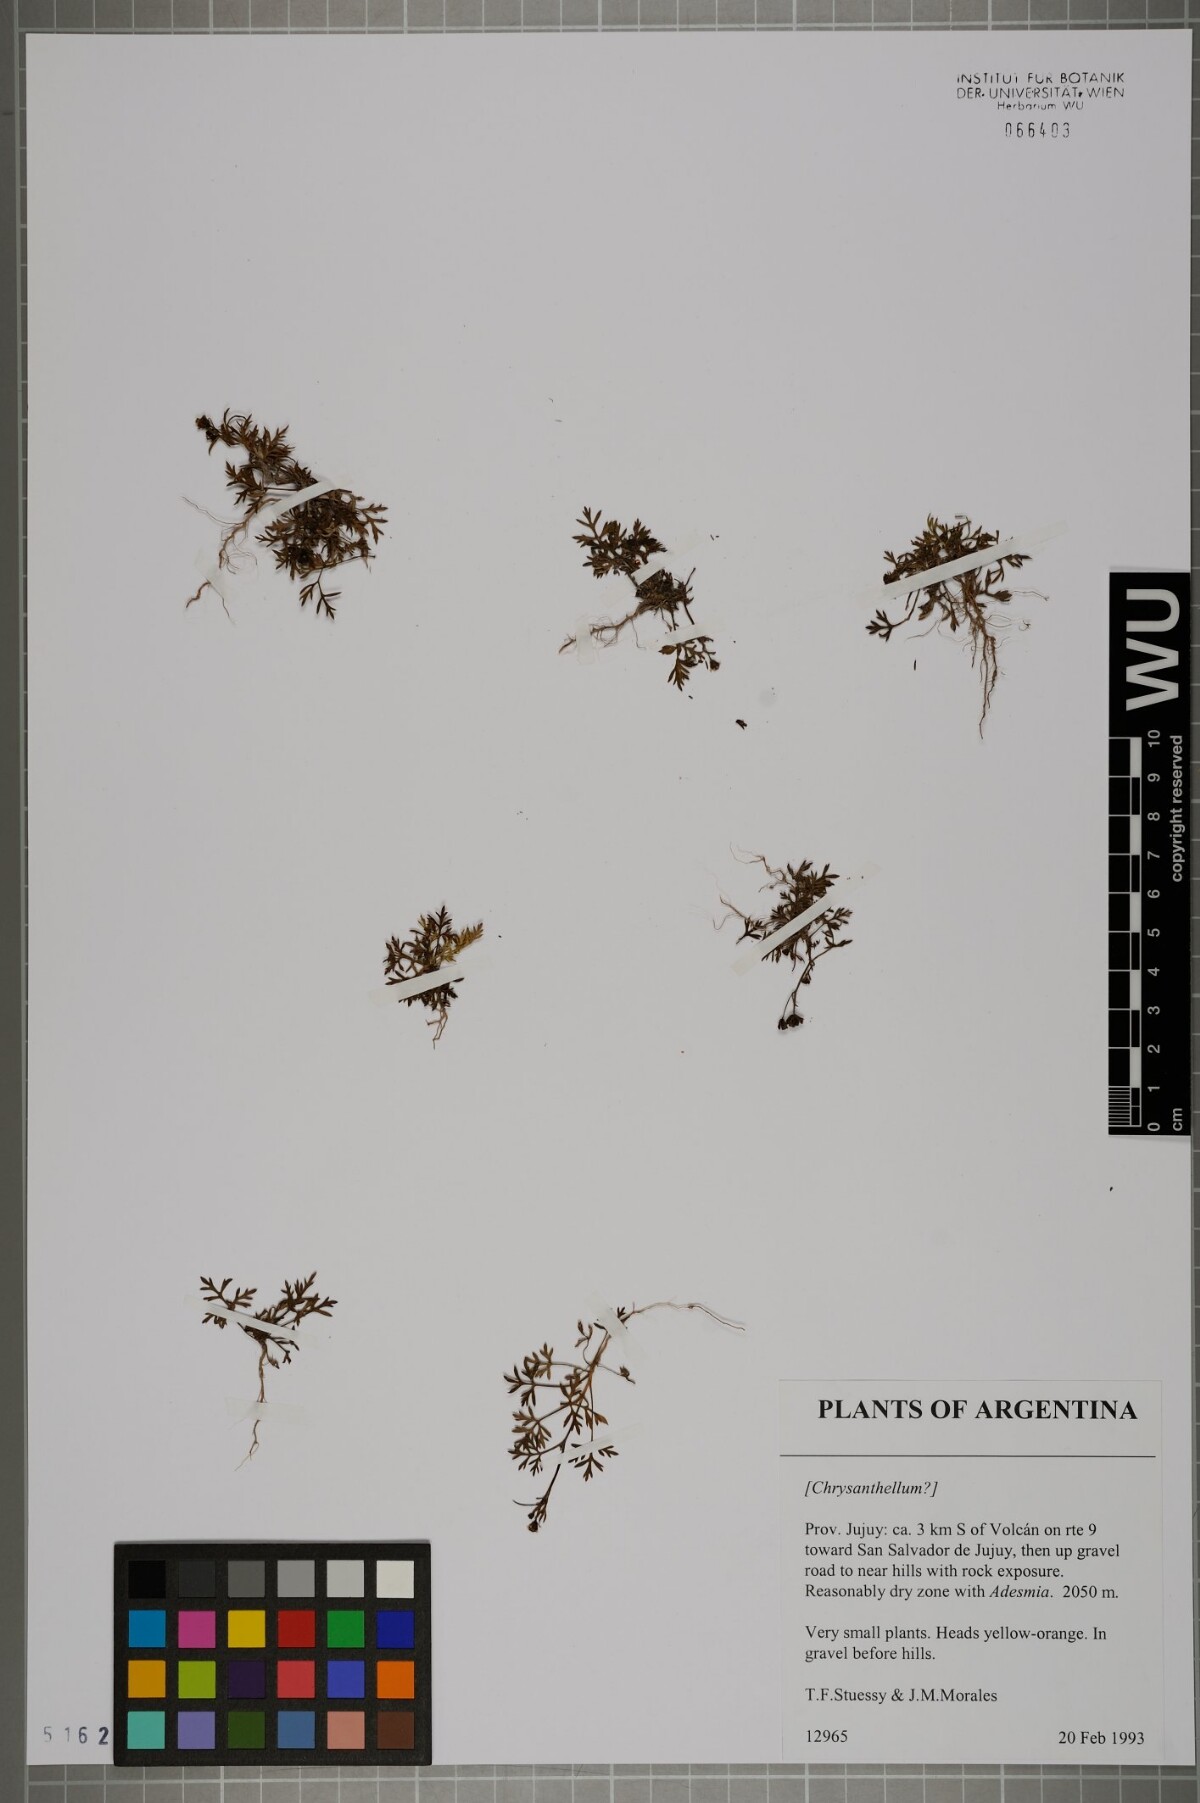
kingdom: Plantae
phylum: Tracheophyta
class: Magnoliopsida
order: Asterales
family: Asteraceae
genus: Chrysanthellum
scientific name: Chrysanthellum
